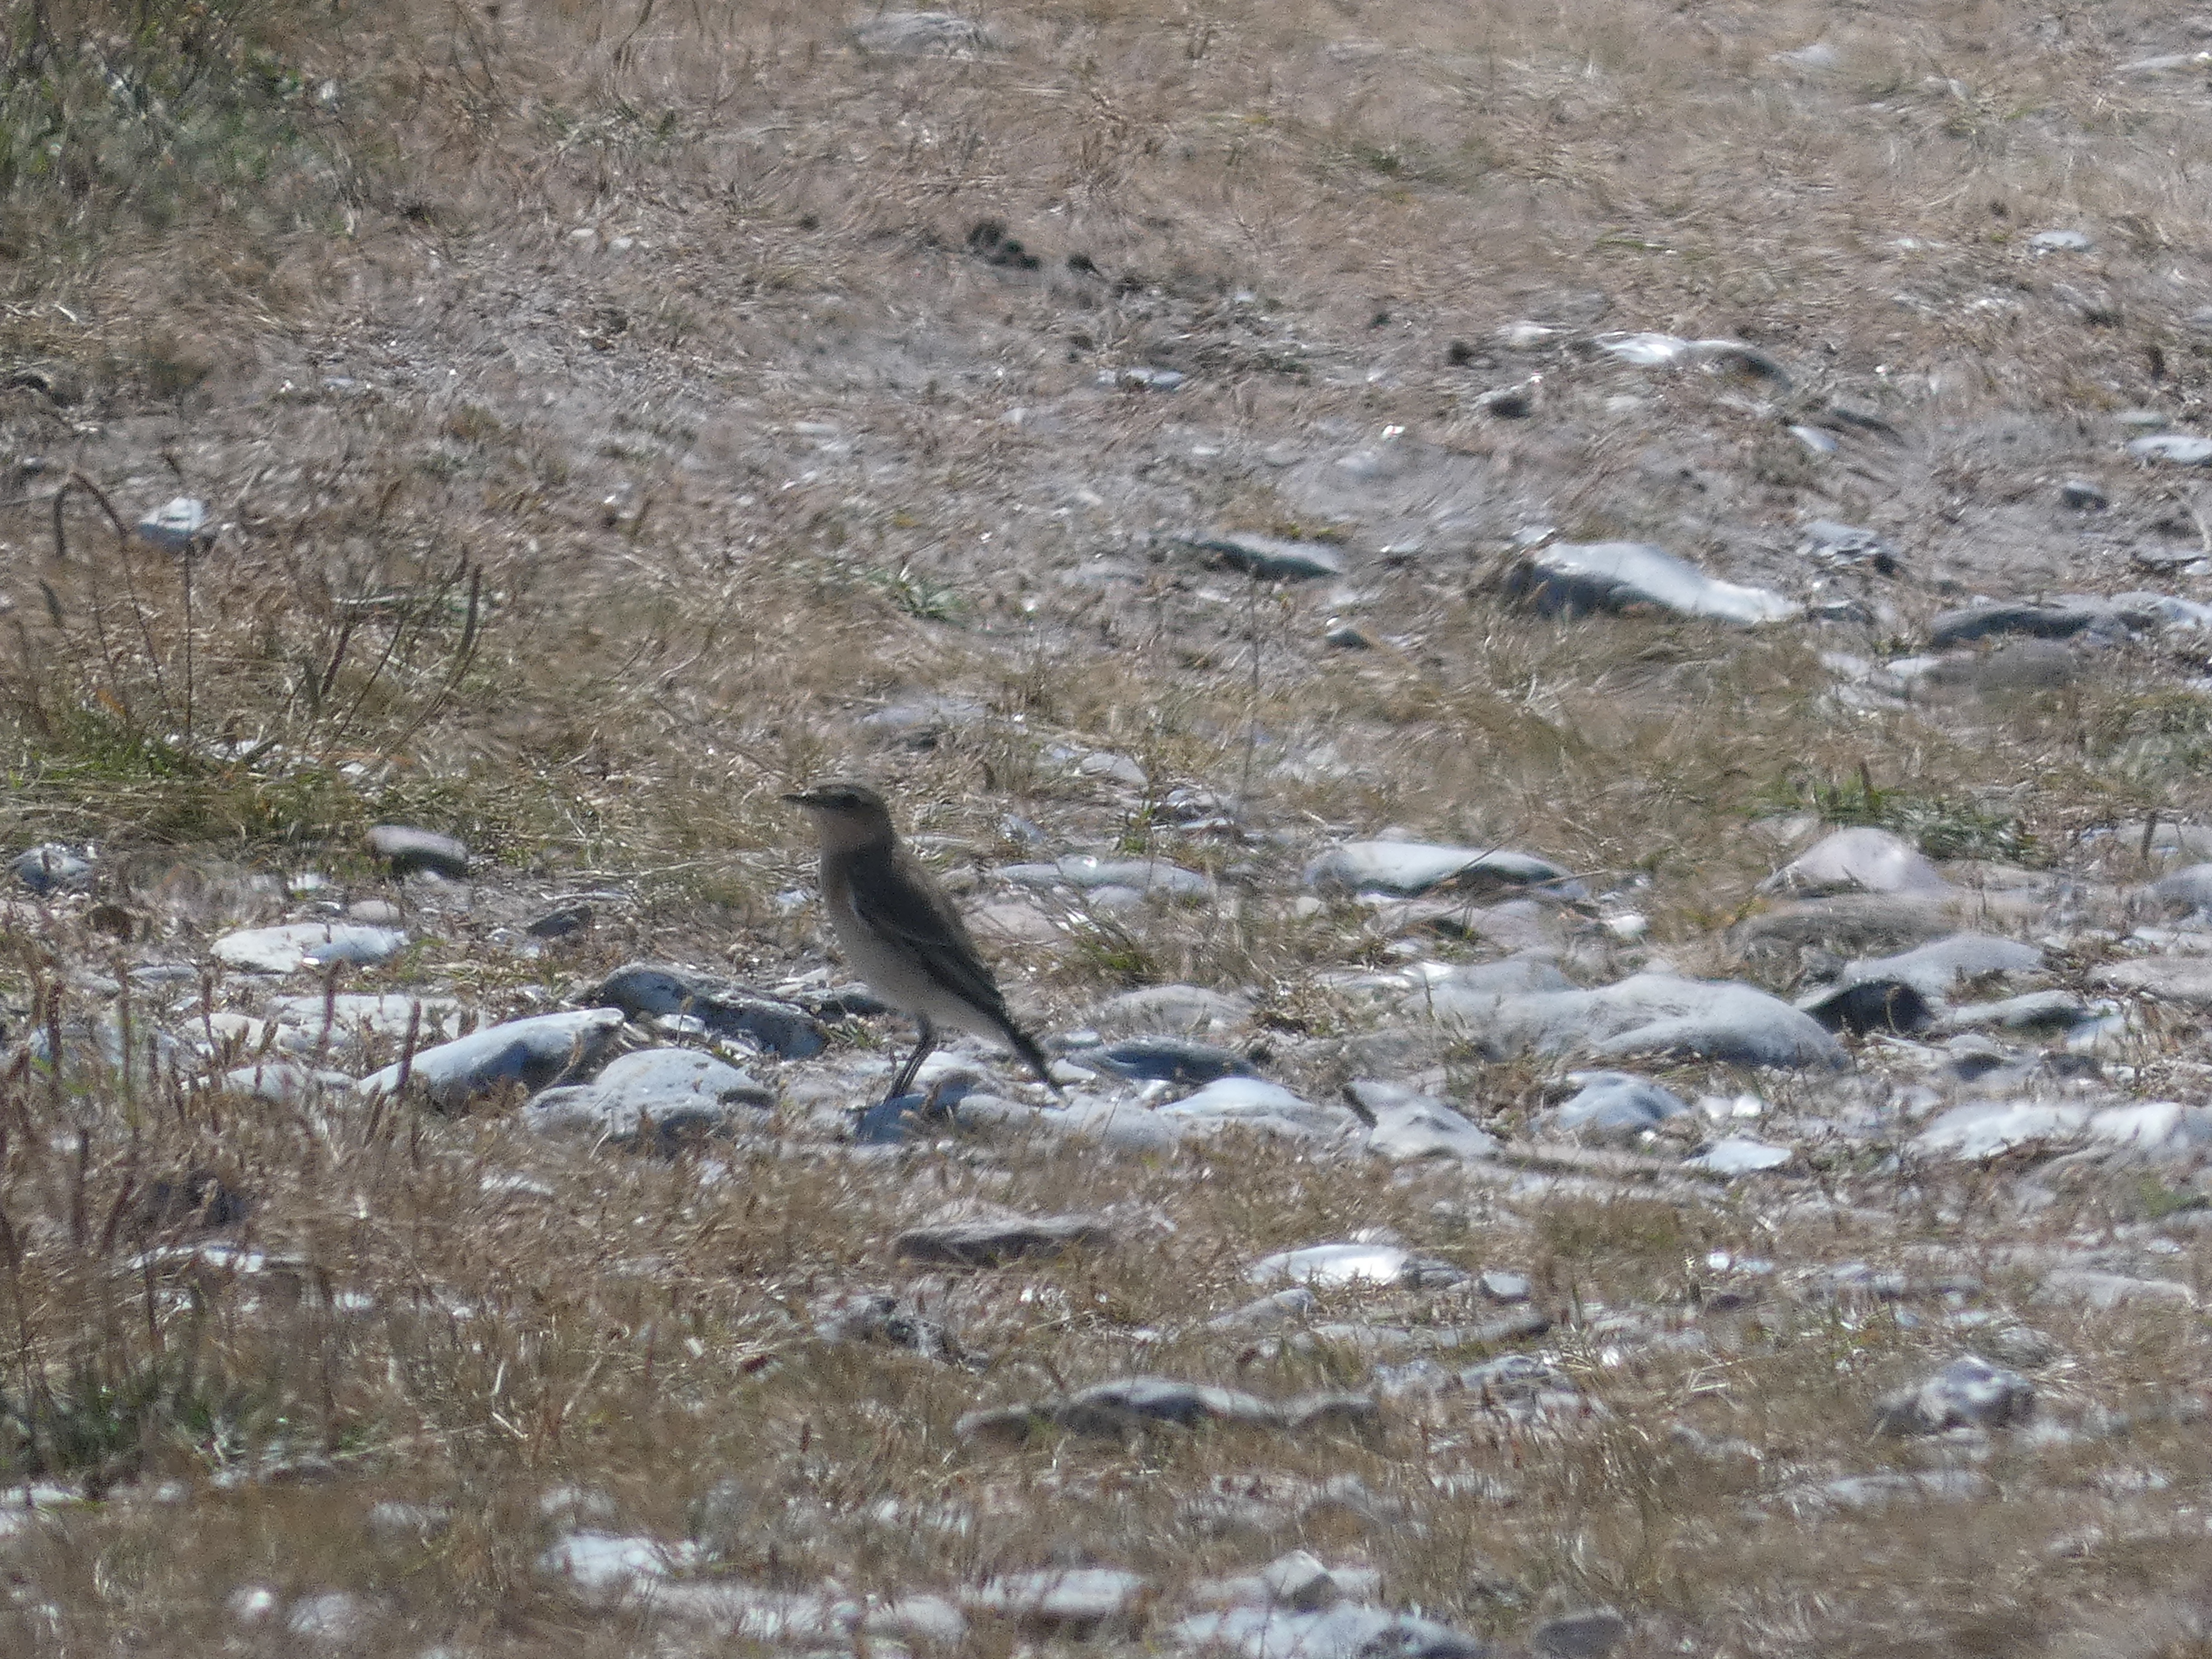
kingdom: Animalia
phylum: Chordata
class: Aves
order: Passeriformes
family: Muscicapidae
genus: Oenanthe
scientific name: Oenanthe oenanthe
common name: Stenpikker
